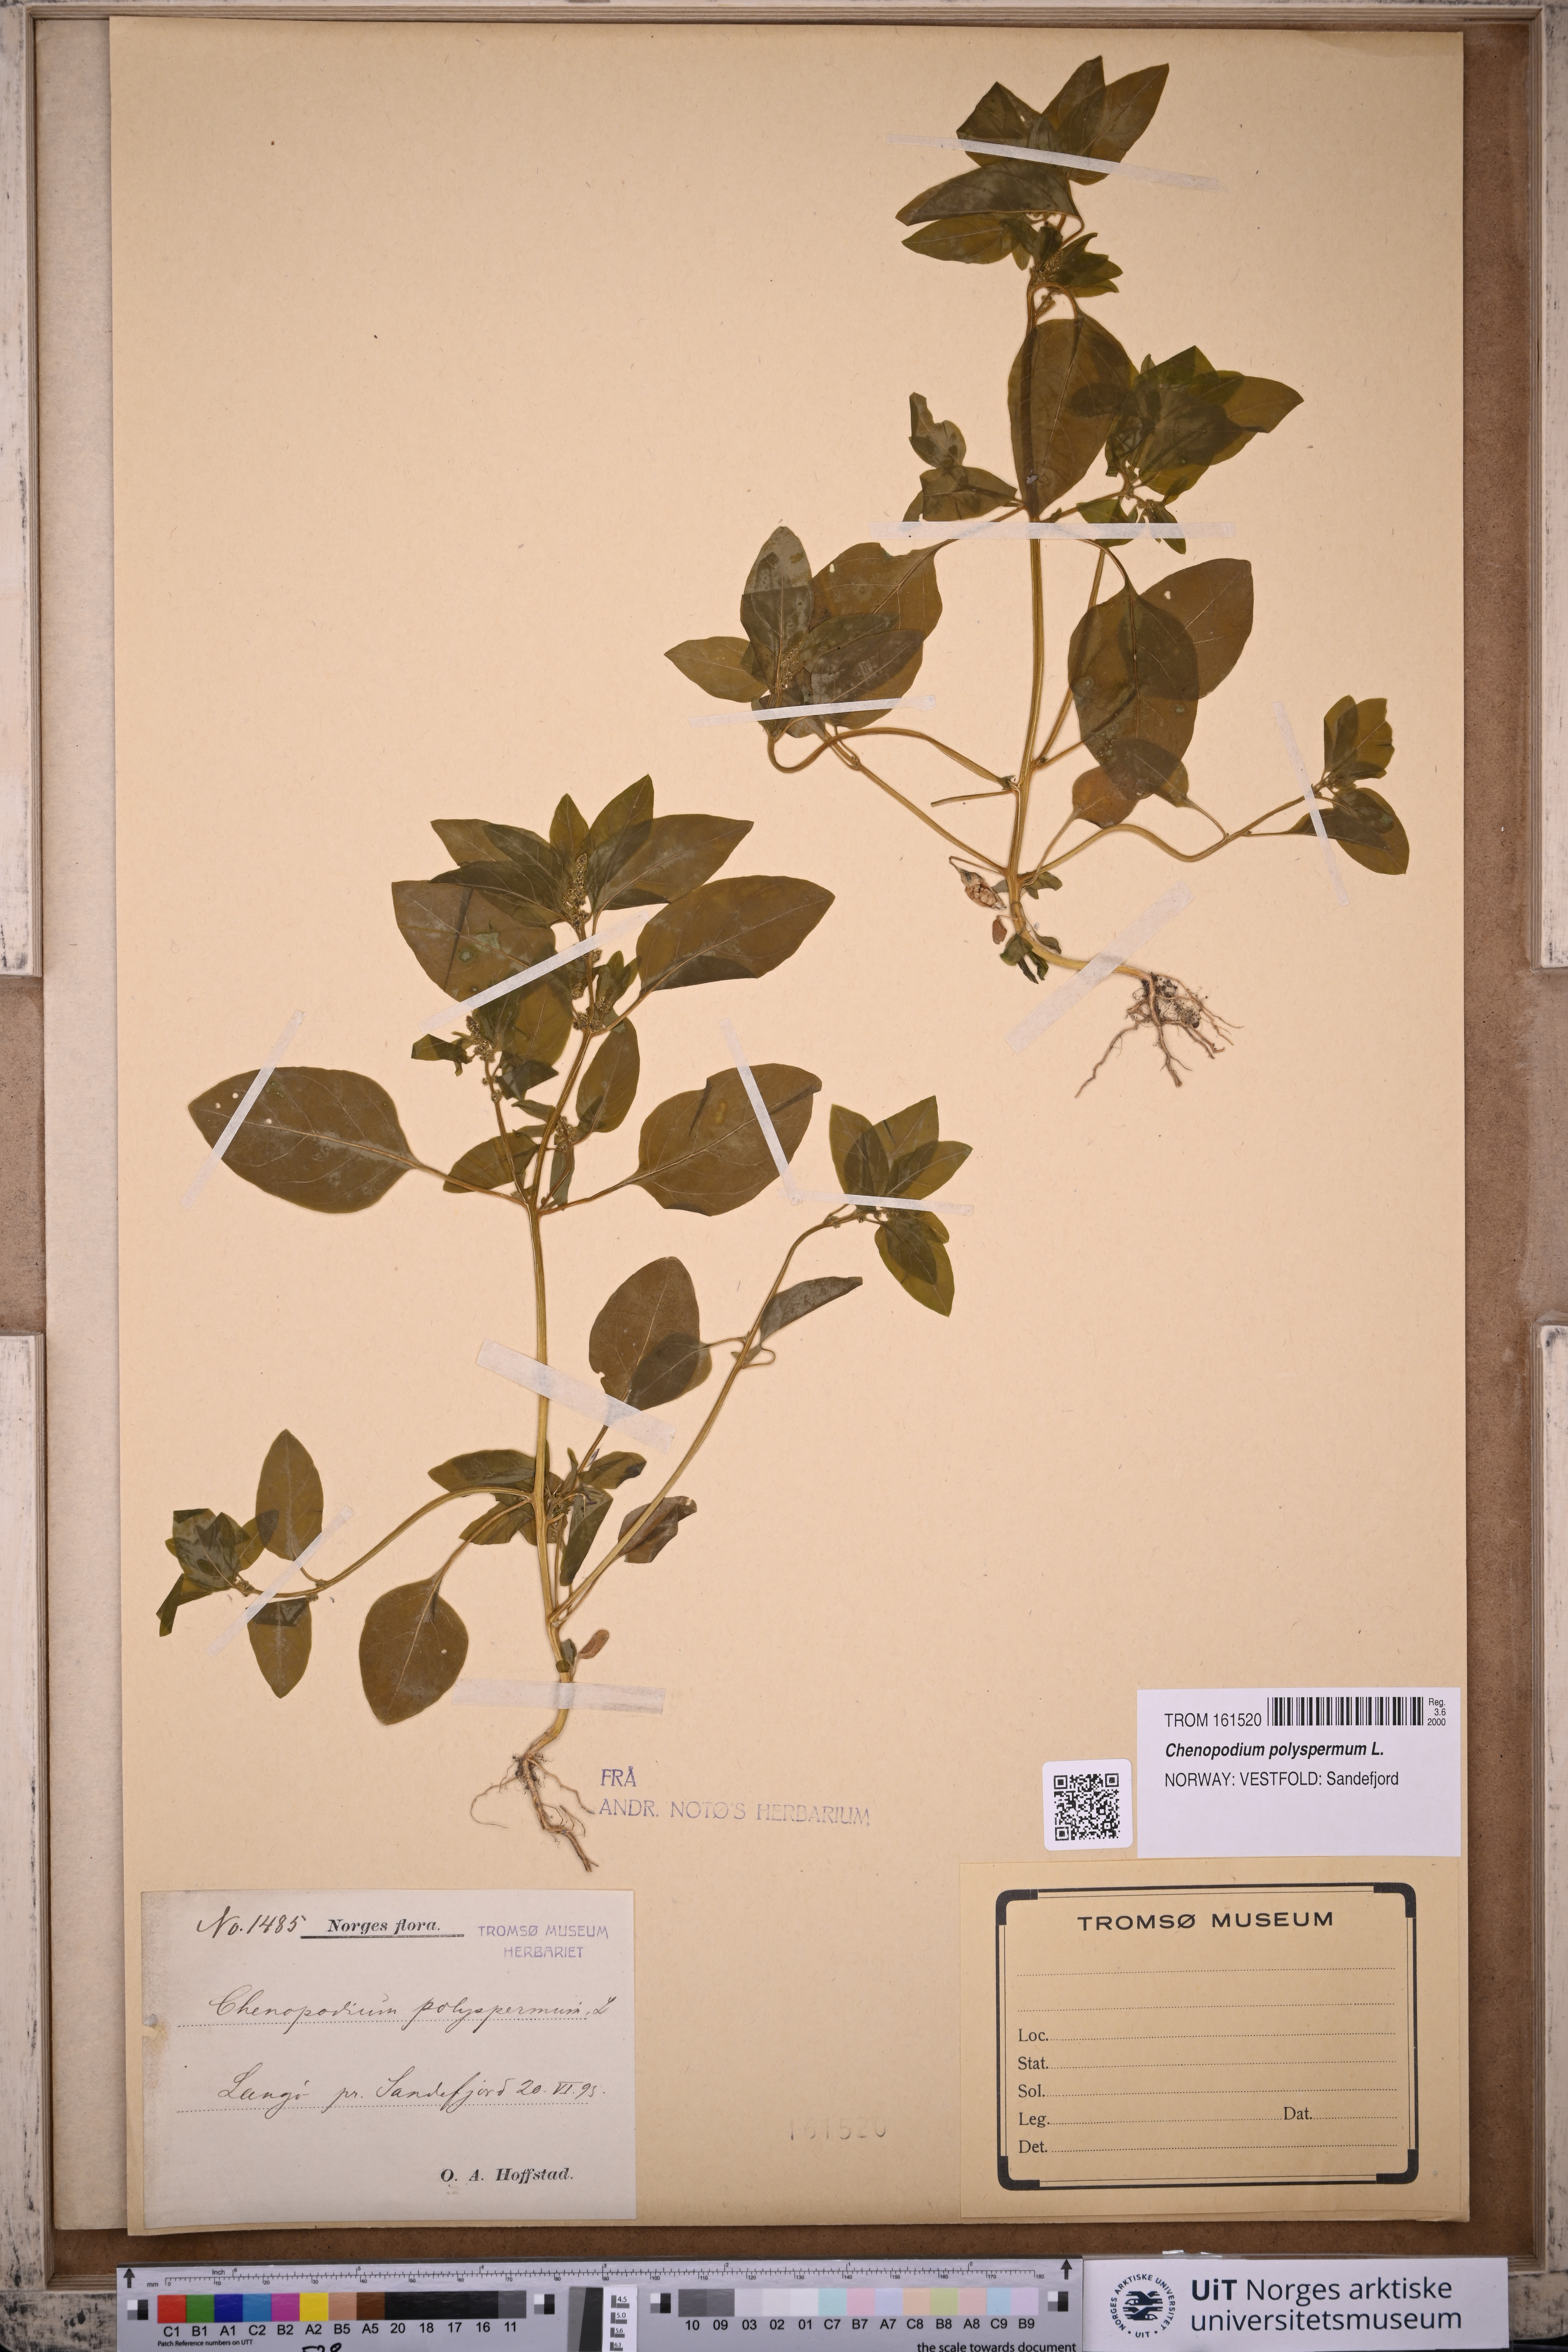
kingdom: Plantae
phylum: Tracheophyta
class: Magnoliopsida
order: Caryophyllales
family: Amaranthaceae
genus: Lipandra
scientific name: Lipandra polysperma
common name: Many-seed goosefoot
